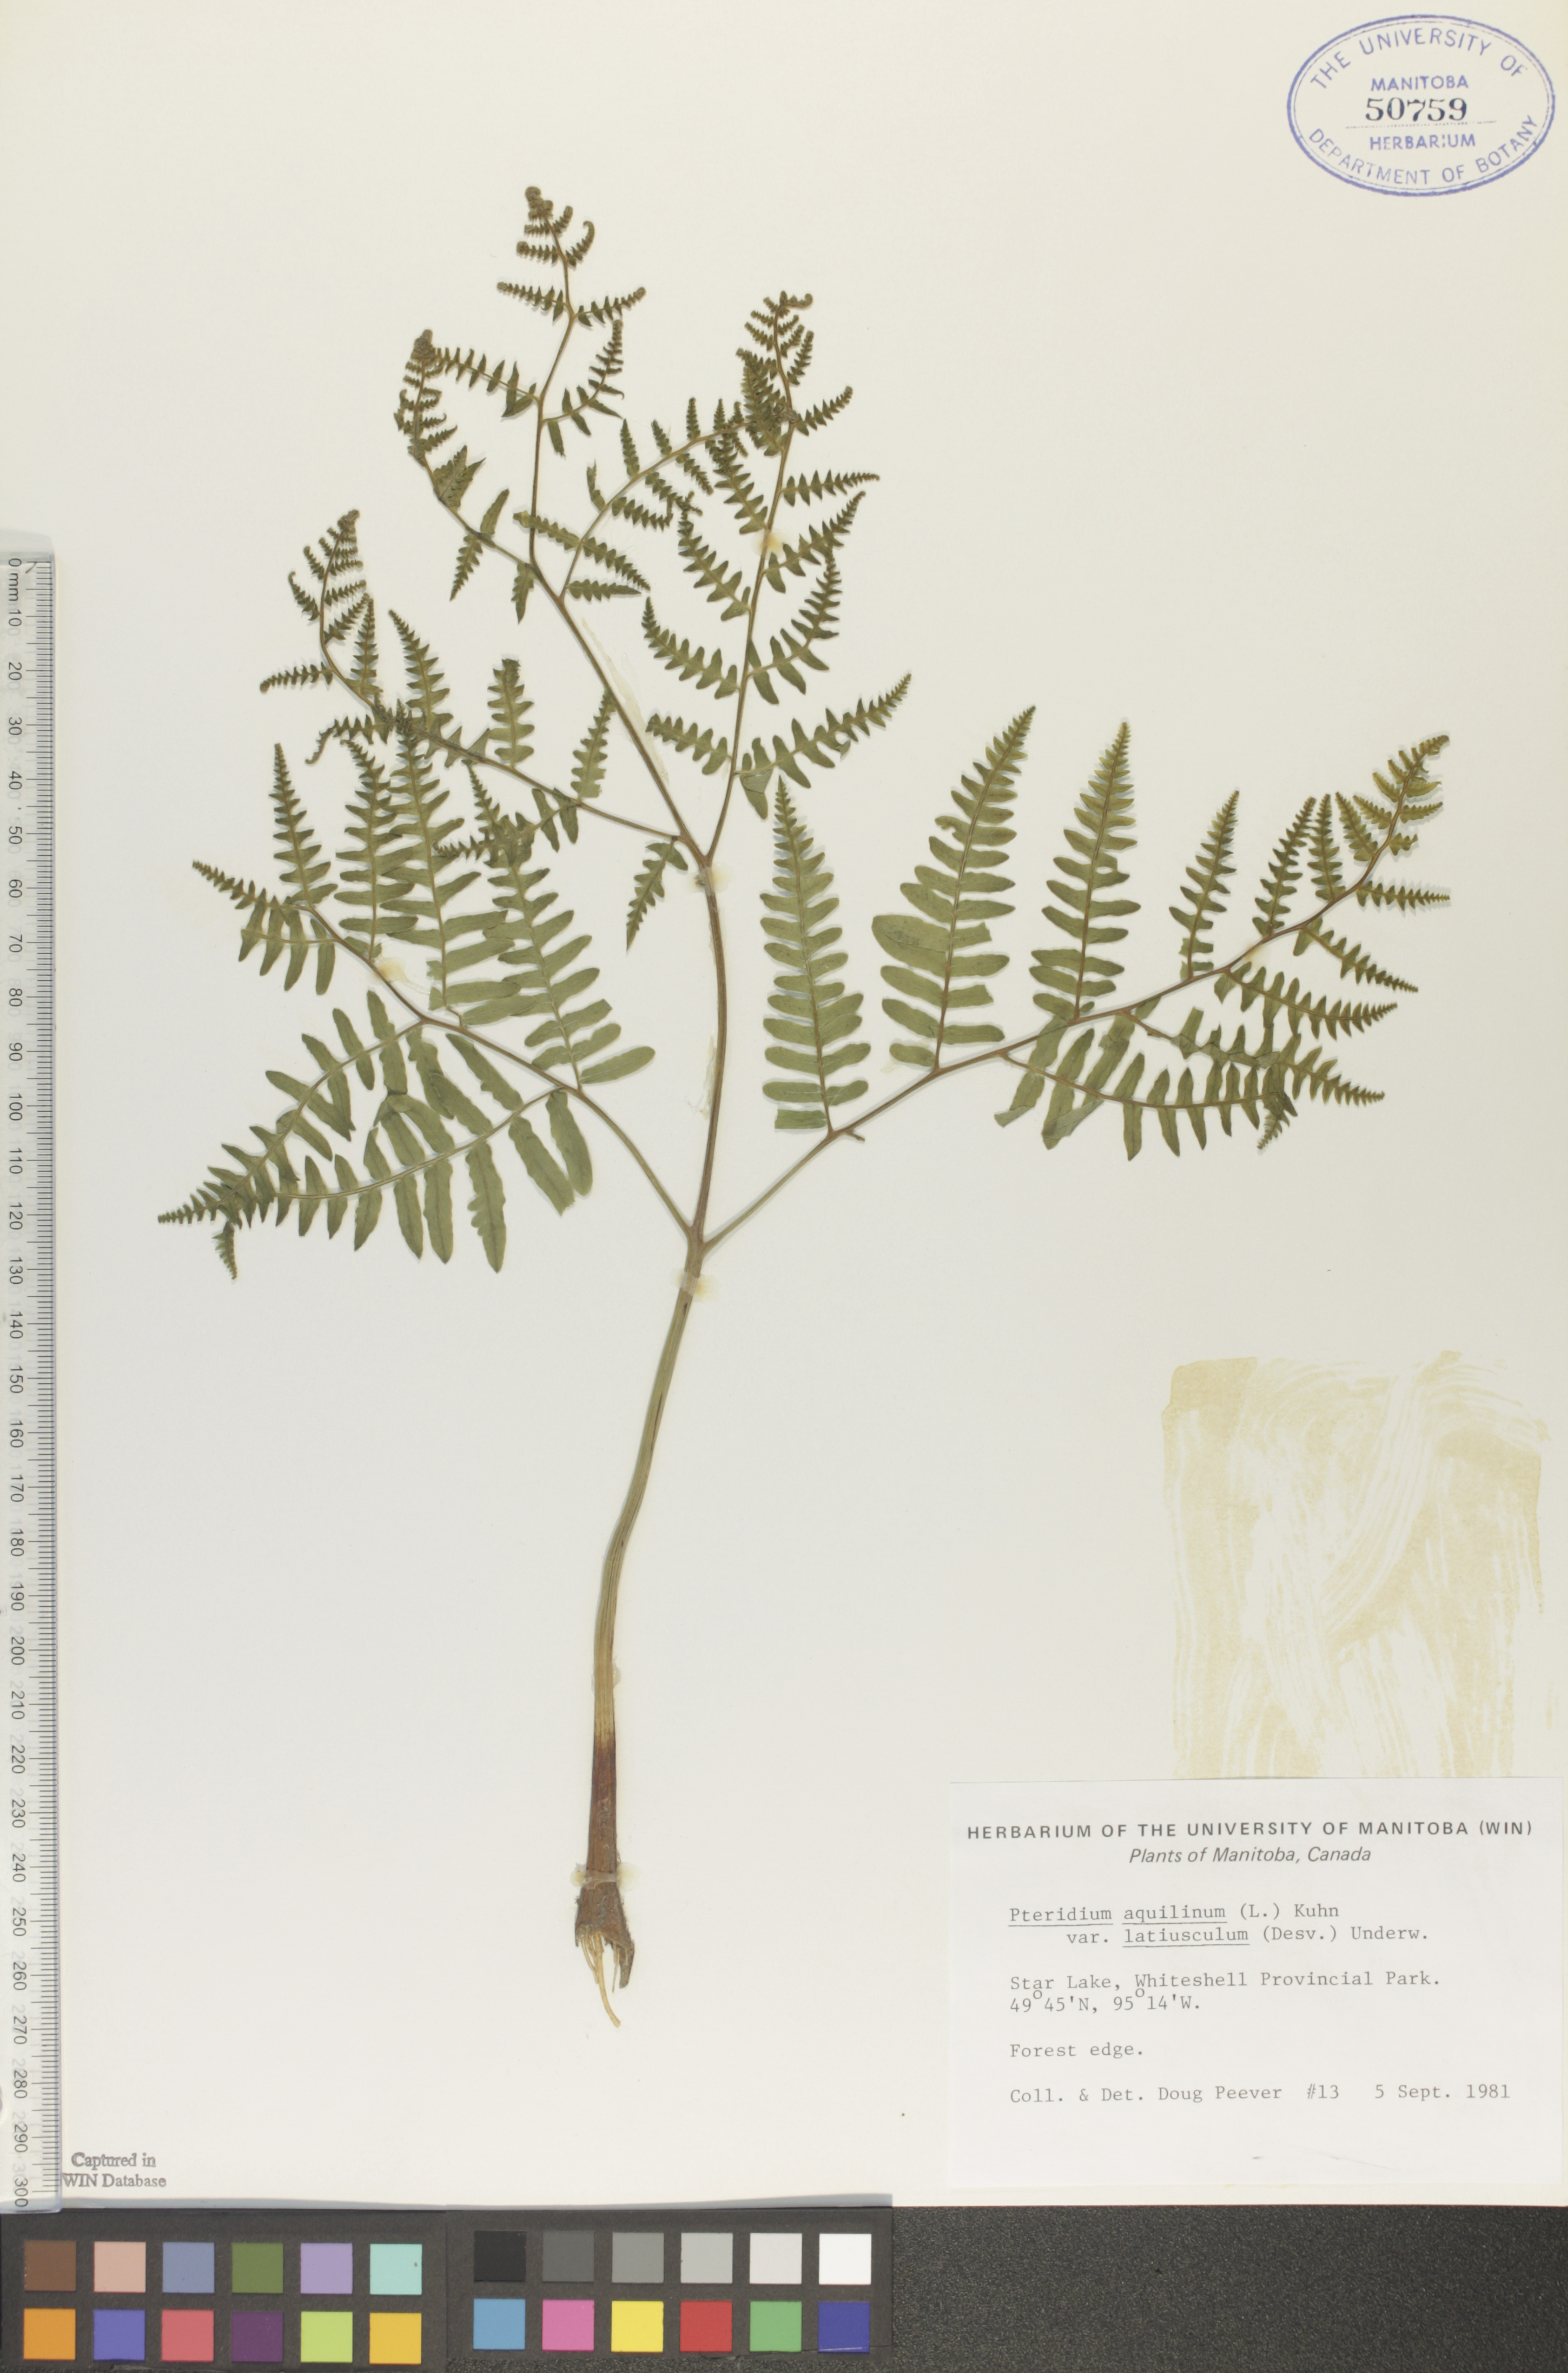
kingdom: Plantae
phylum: Tracheophyta
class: Polypodiopsida
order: Polypodiales
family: Dennstaedtiaceae
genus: Pteridium
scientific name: Pteridium aquilinum
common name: Bracken
